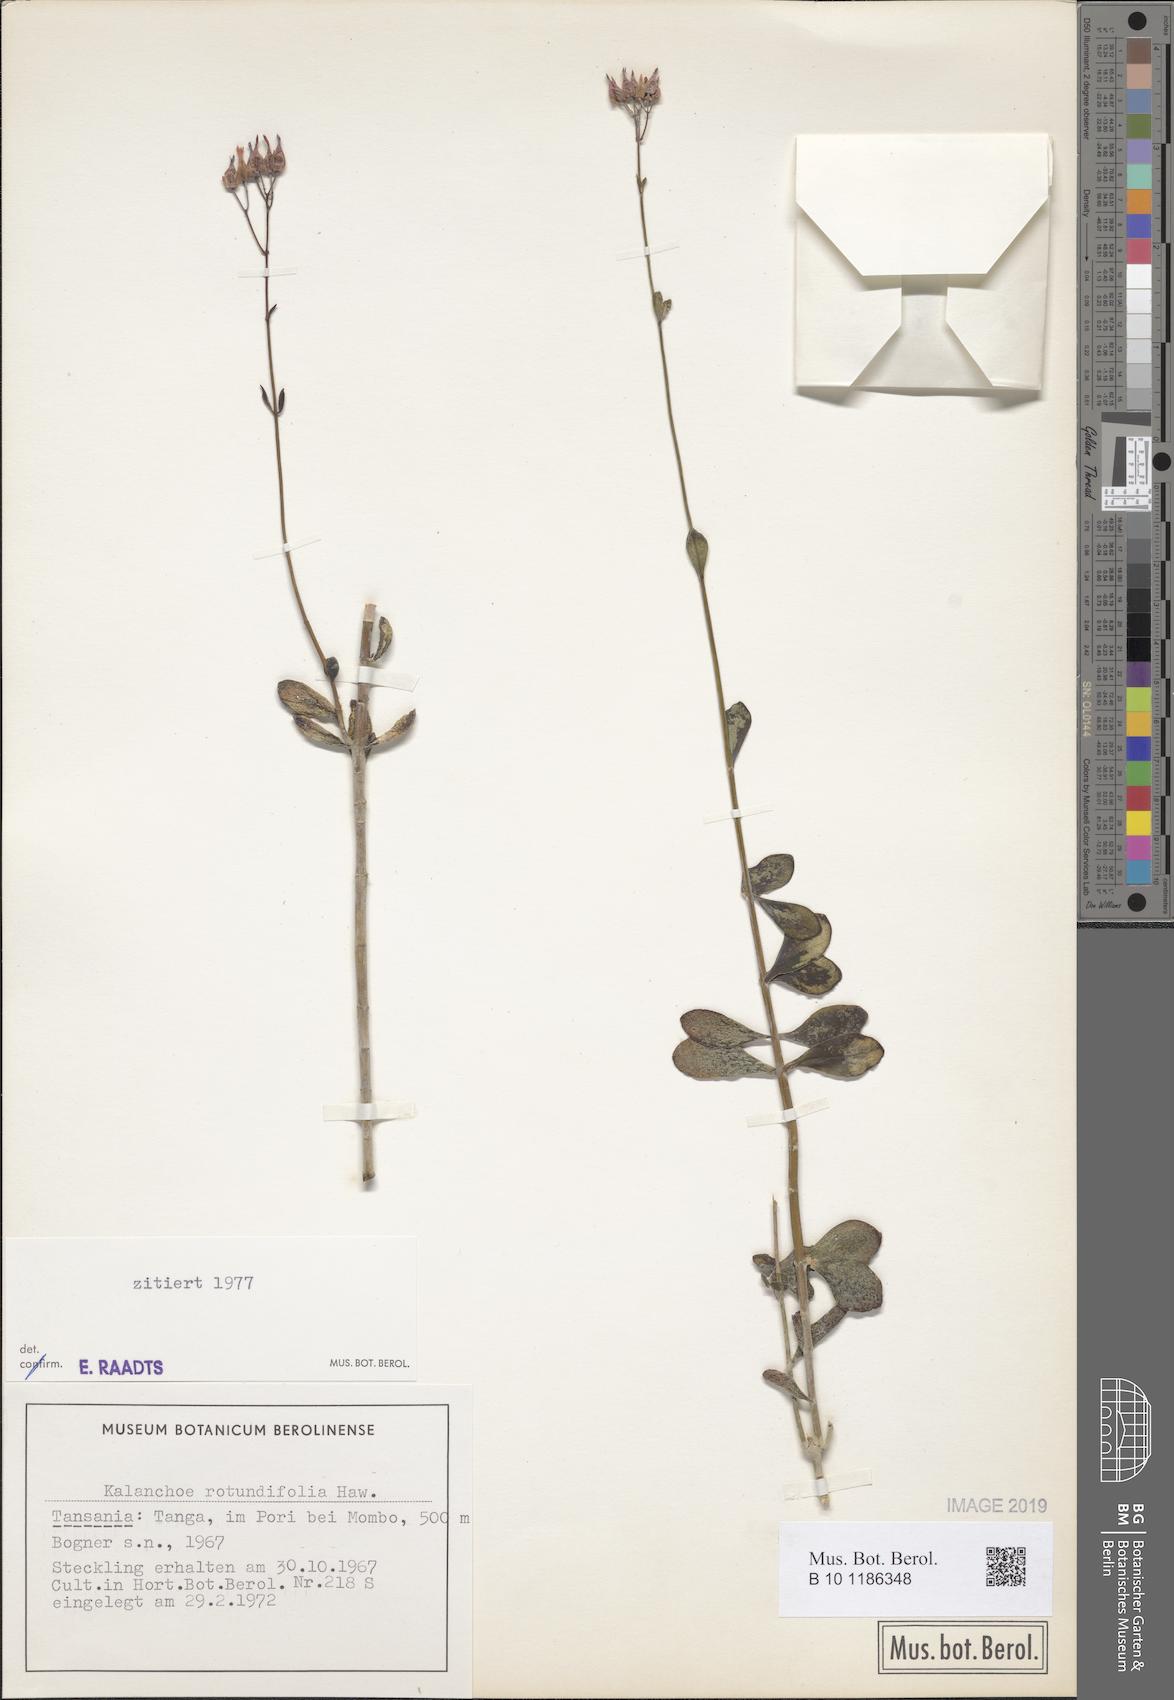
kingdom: Plantae
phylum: Tracheophyta
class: Magnoliopsida
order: Saxifragales
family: Crassulaceae
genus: Kalanchoe
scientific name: Kalanchoe rotundifolia
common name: Common kalanchoe
